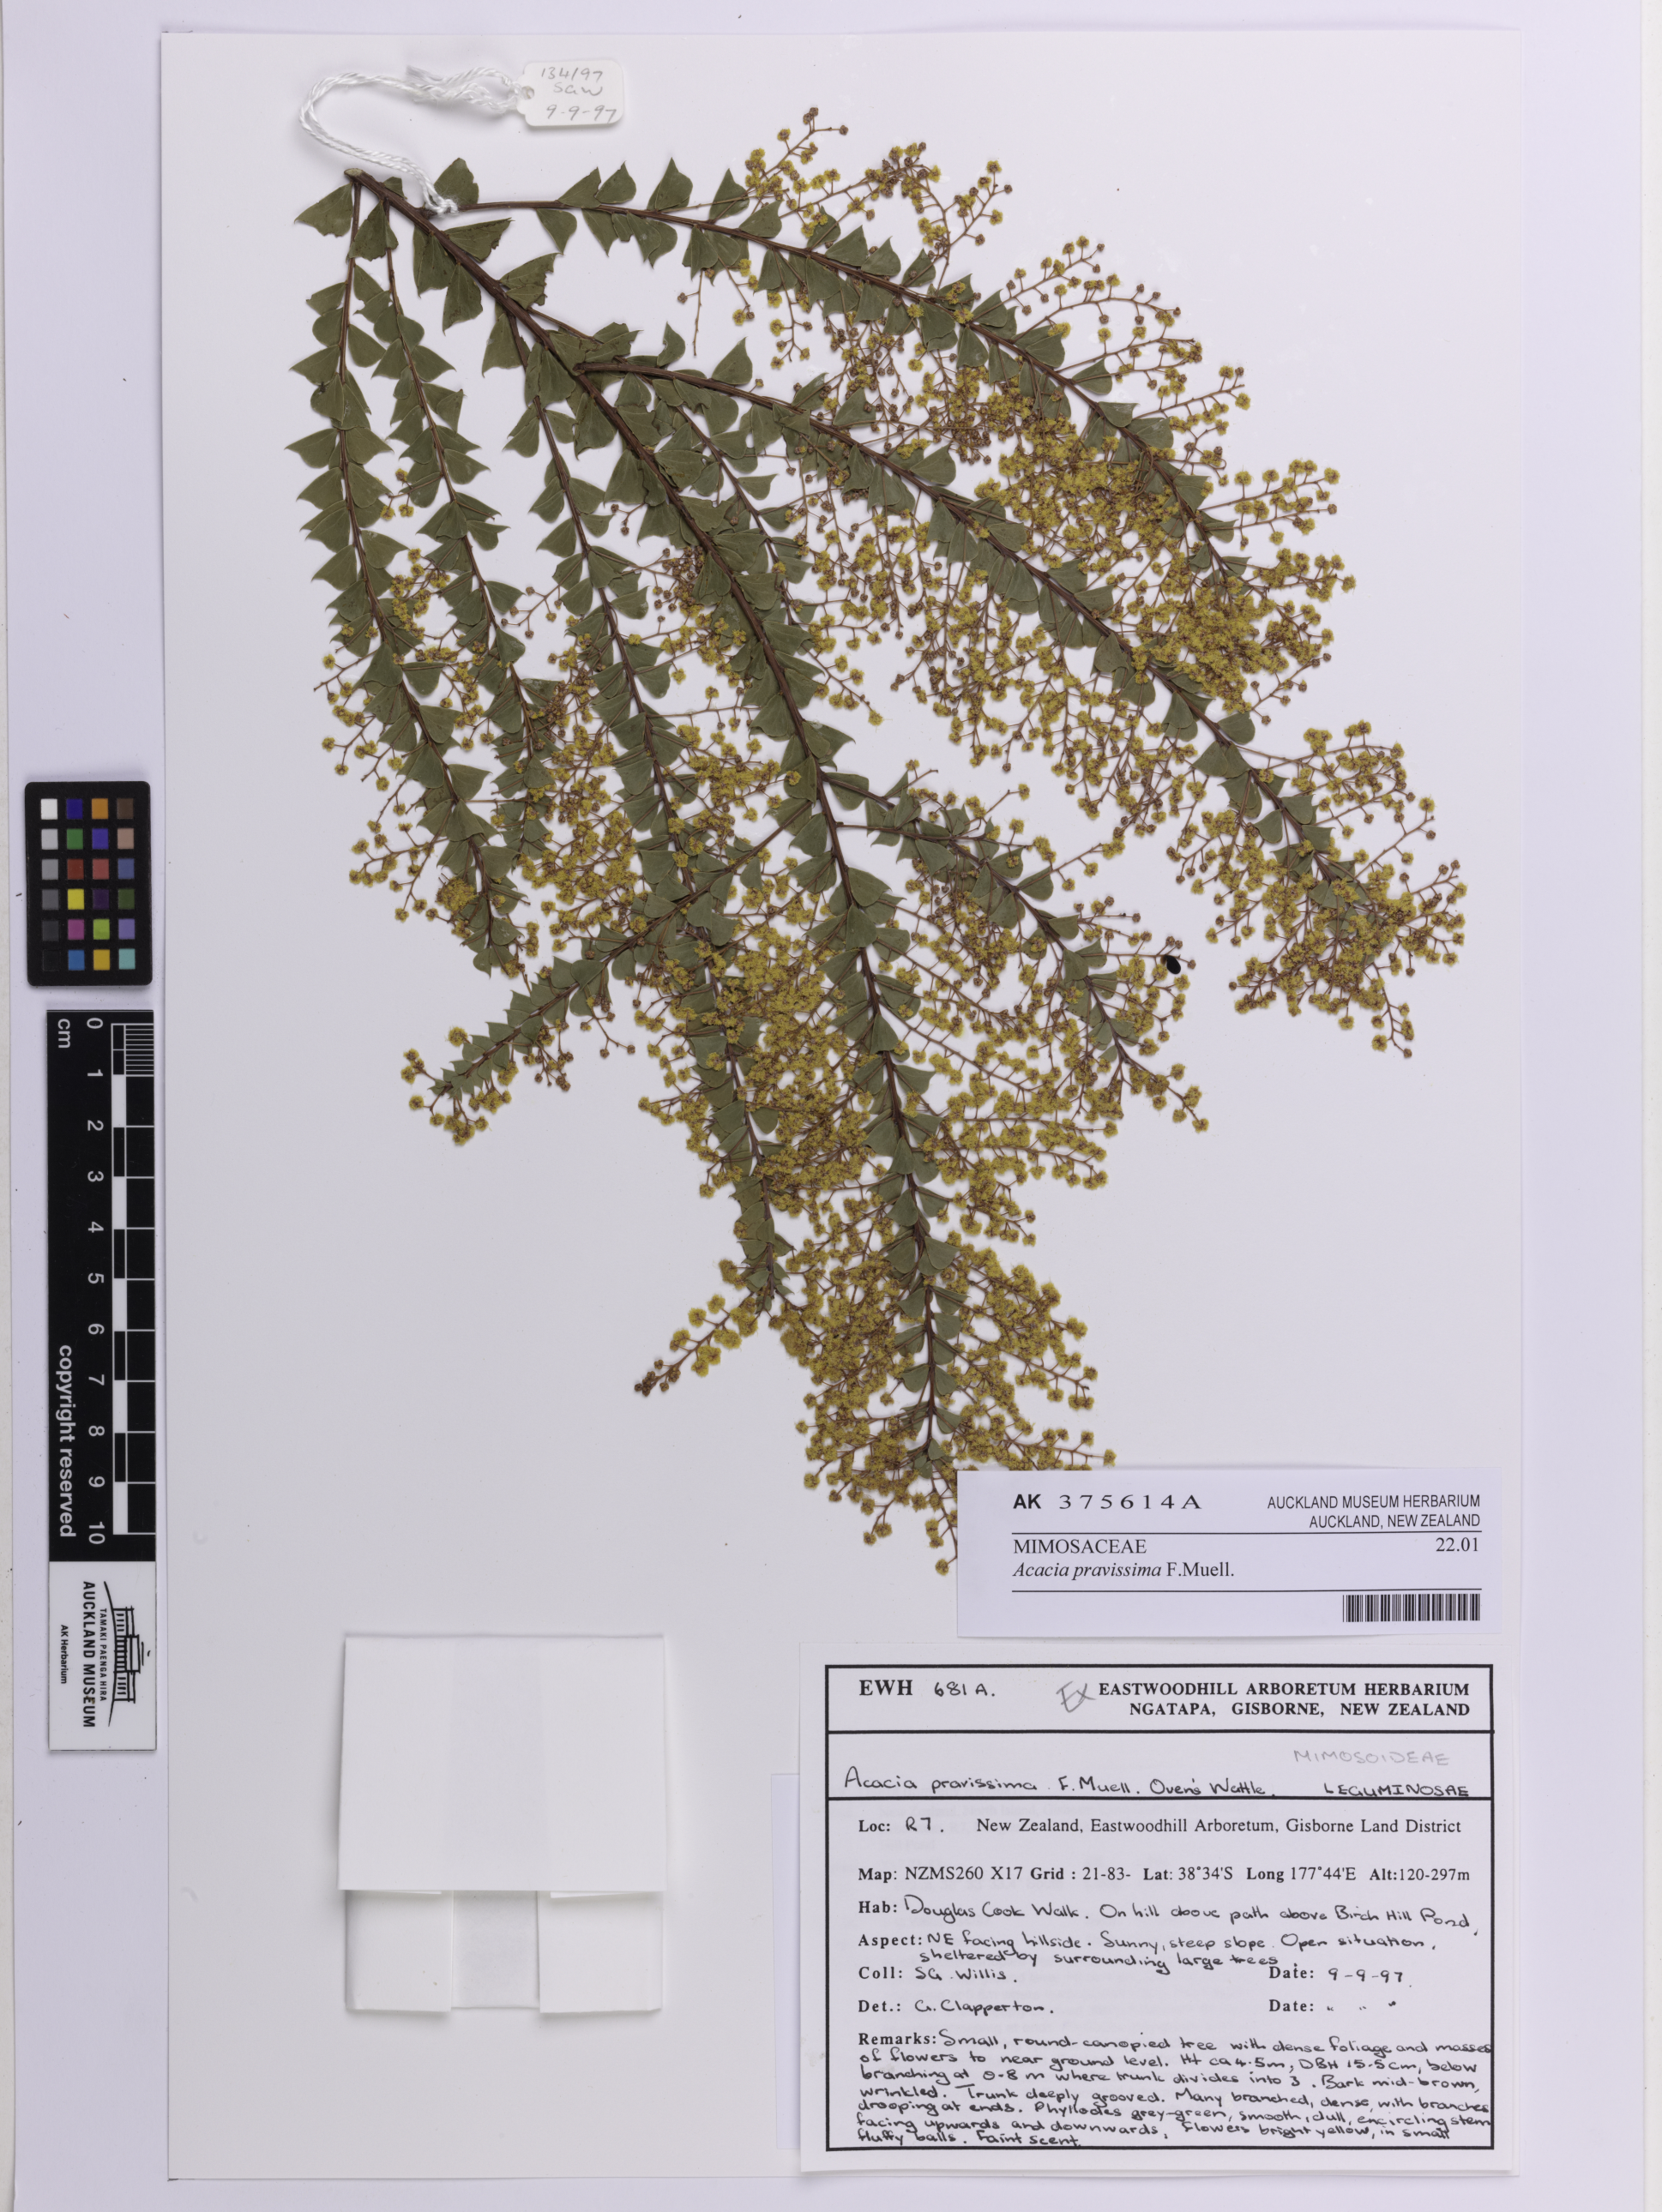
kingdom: Plantae
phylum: Tracheophyta
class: Magnoliopsida
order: Fabales
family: Fabaceae
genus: Acacia
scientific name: Acacia pravissima
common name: Tumut wattle
